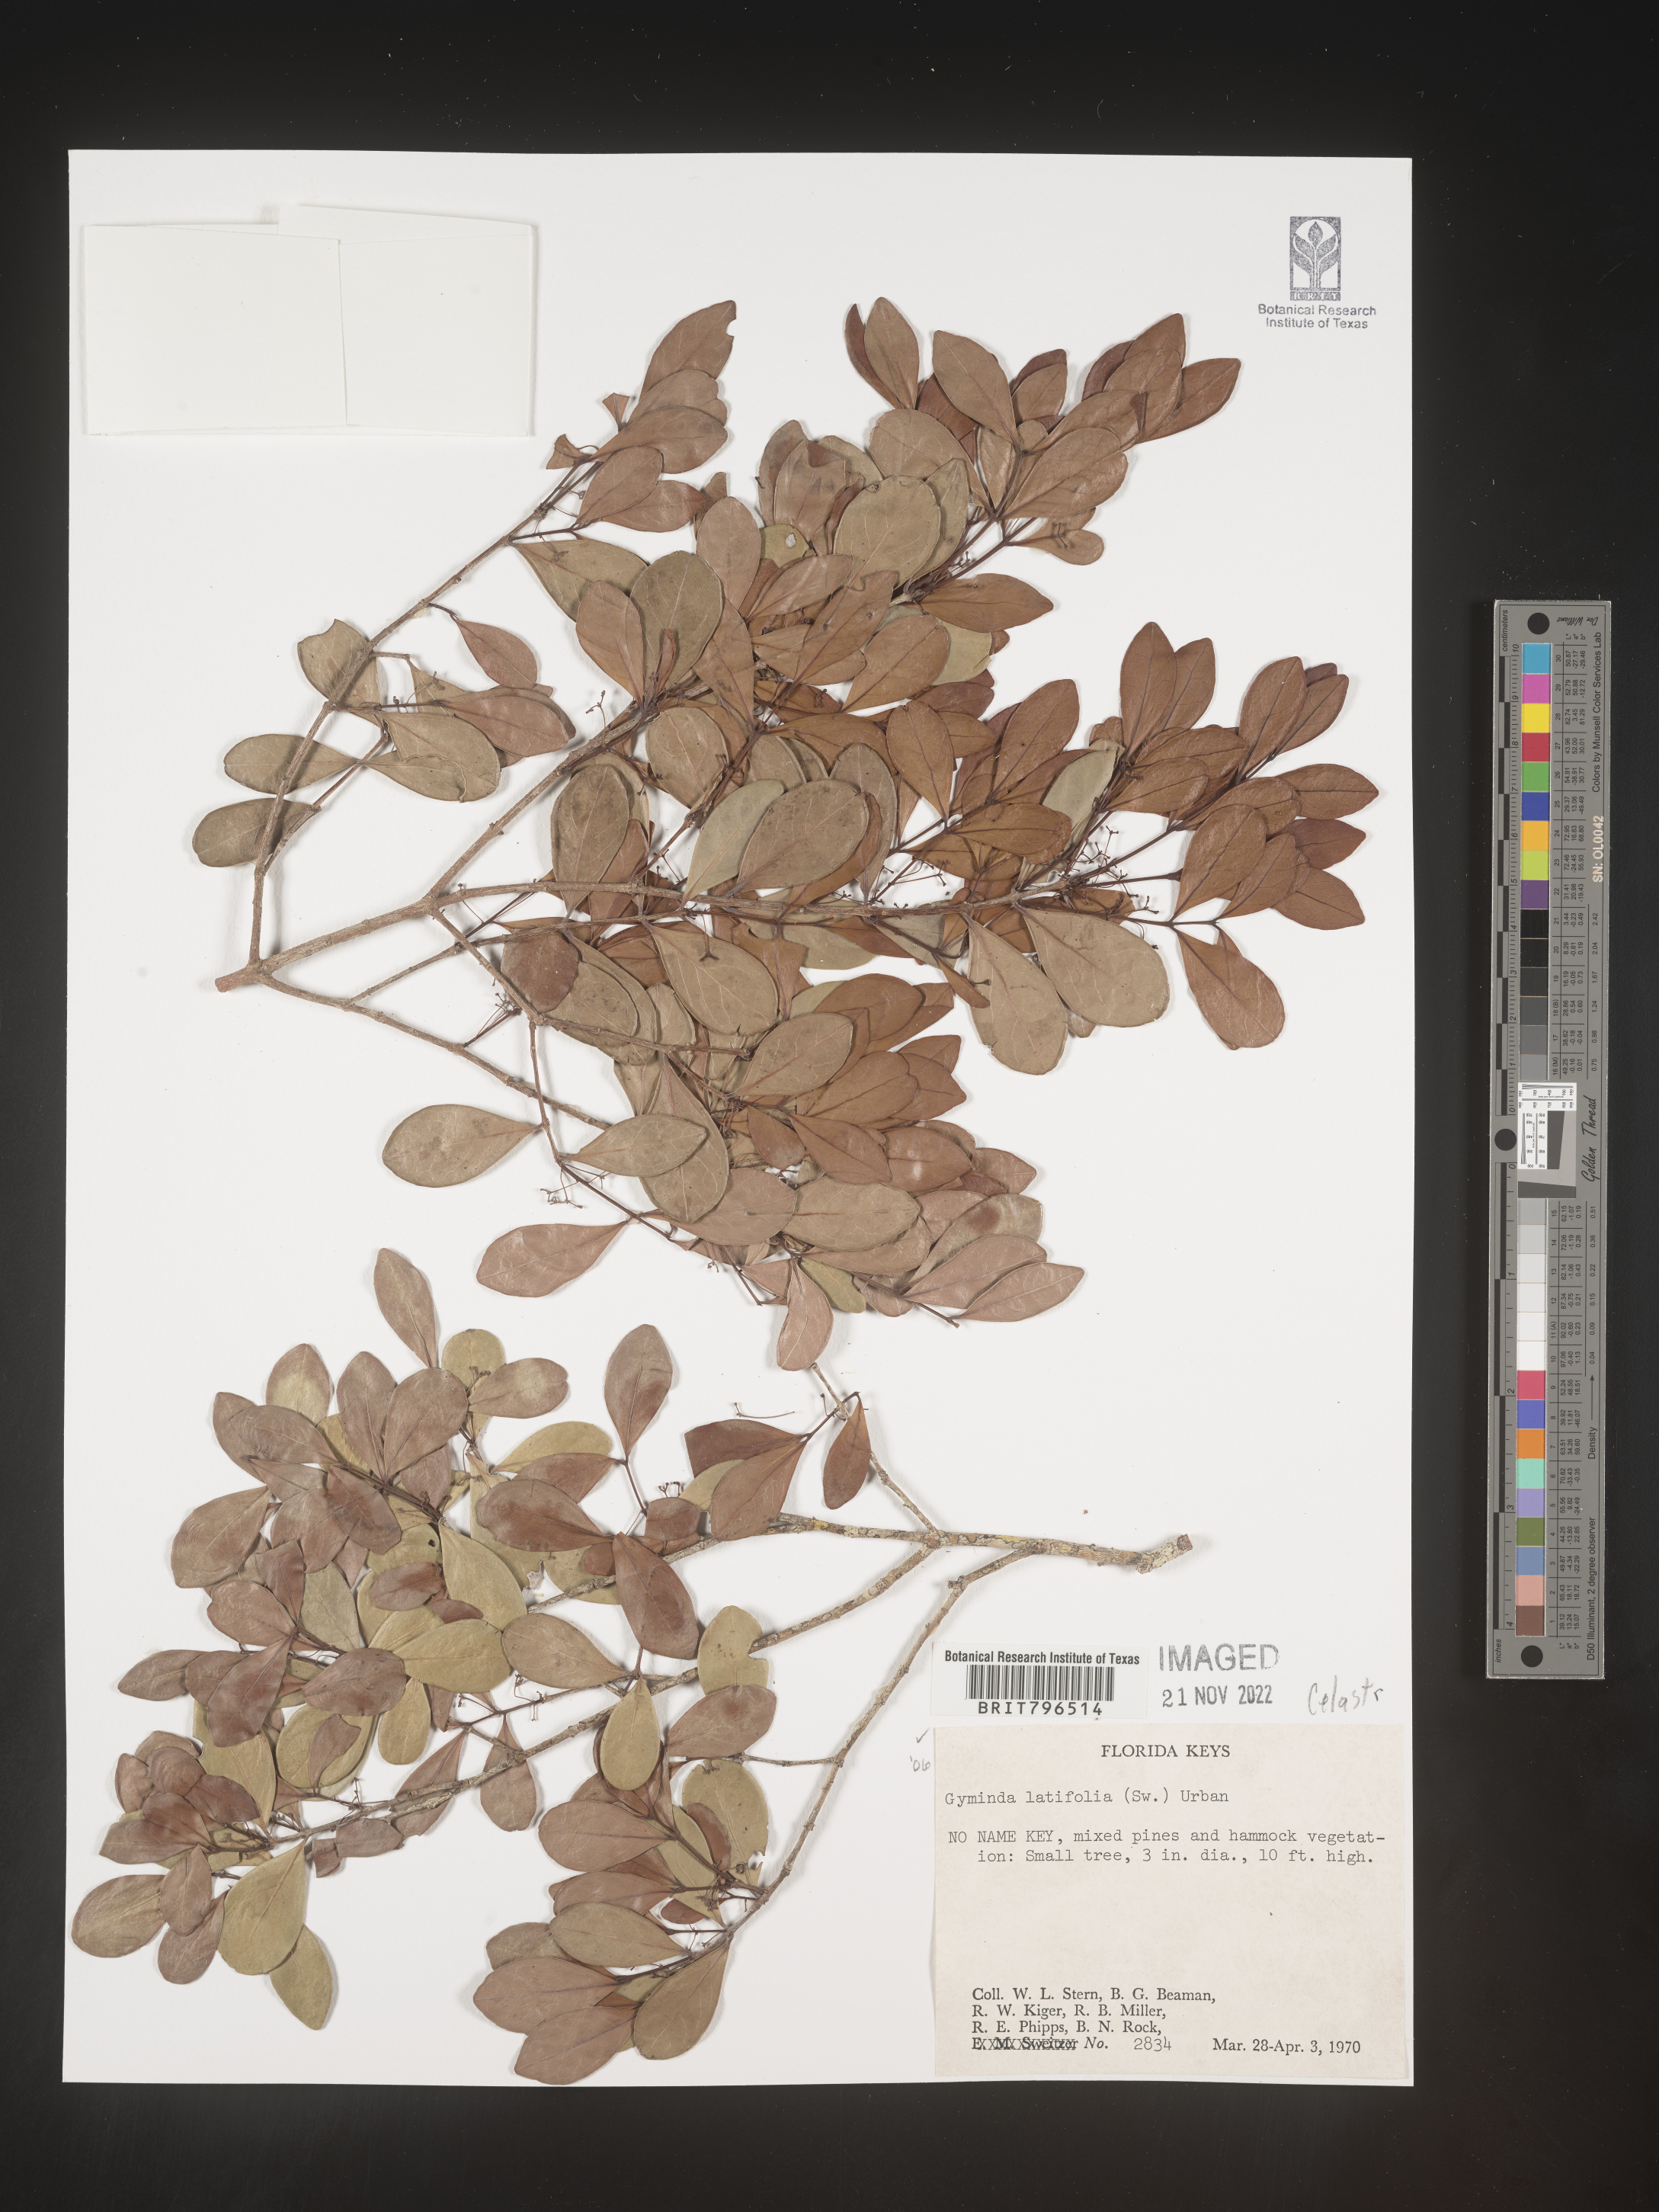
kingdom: Plantae
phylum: Tracheophyta
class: Magnoliopsida
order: Celastrales
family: Celastraceae
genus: Gyminda
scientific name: Gyminda
